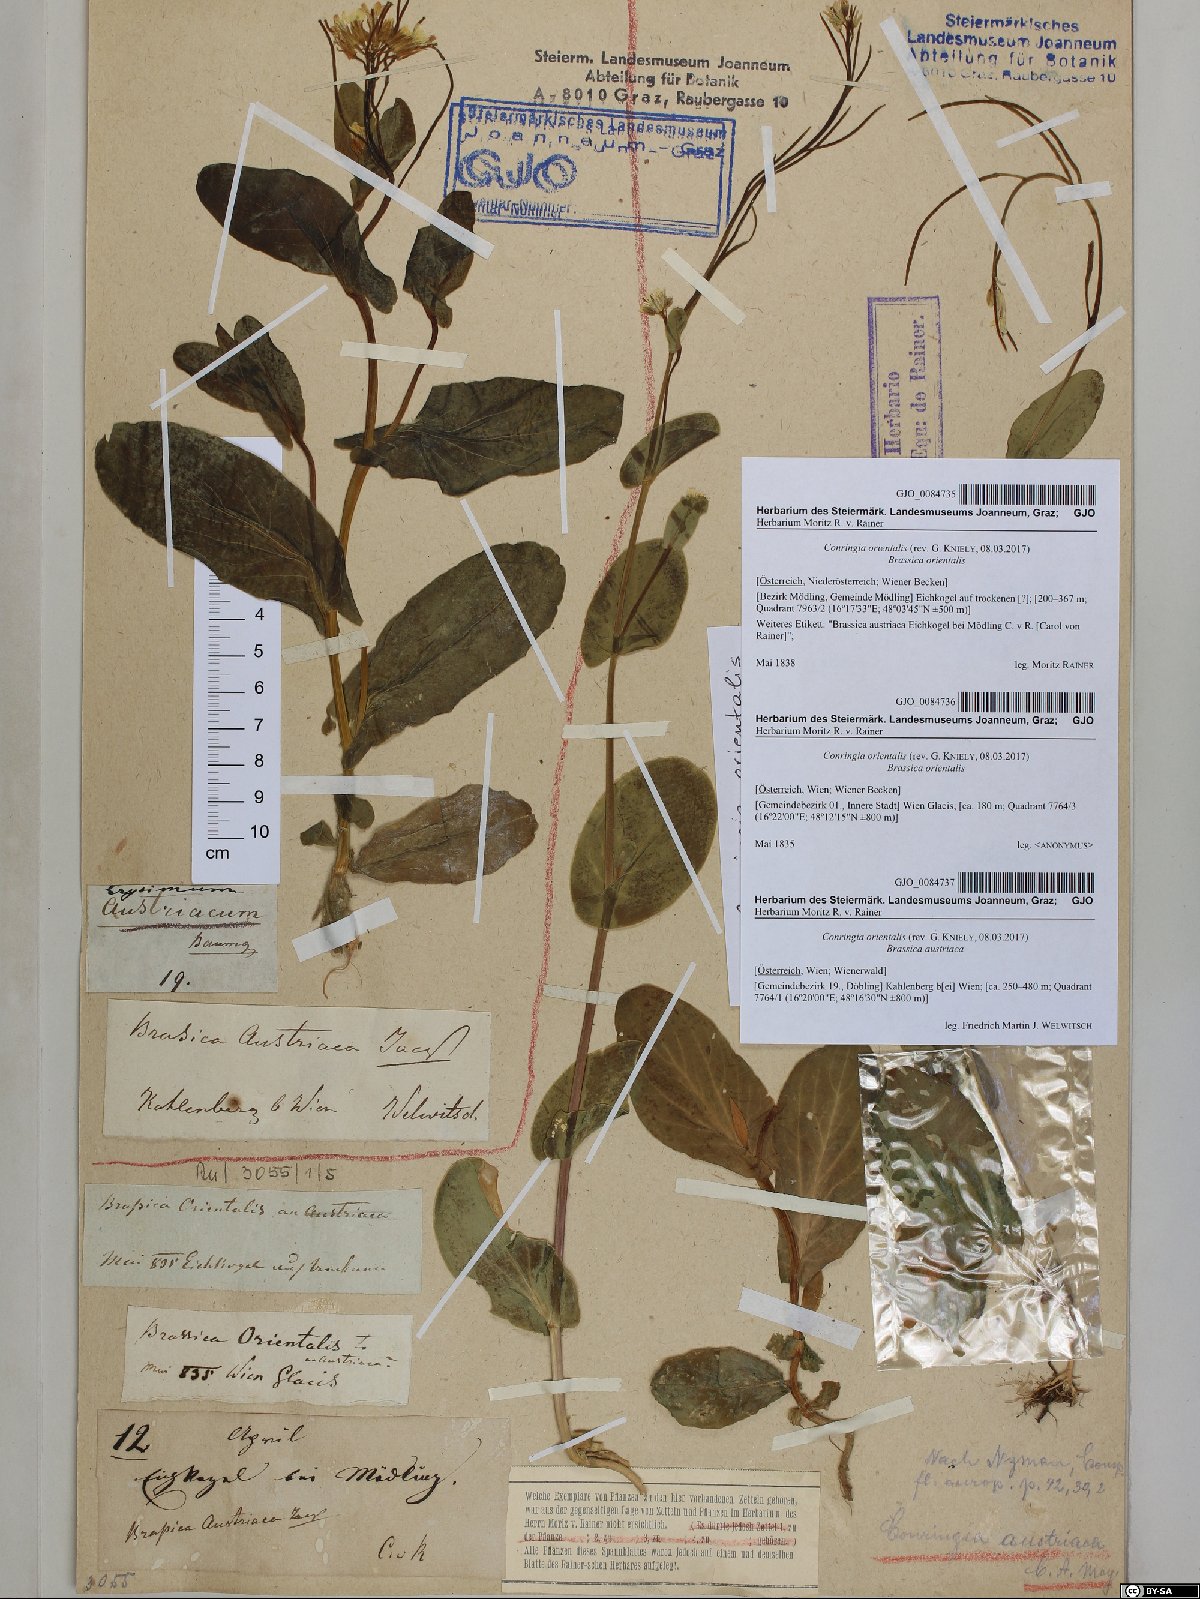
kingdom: Plantae
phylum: Tracheophyta
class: Magnoliopsida
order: Brassicales
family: Brassicaceae
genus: Conringia
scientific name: Conringia orientalis
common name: Hare's ear mustard
